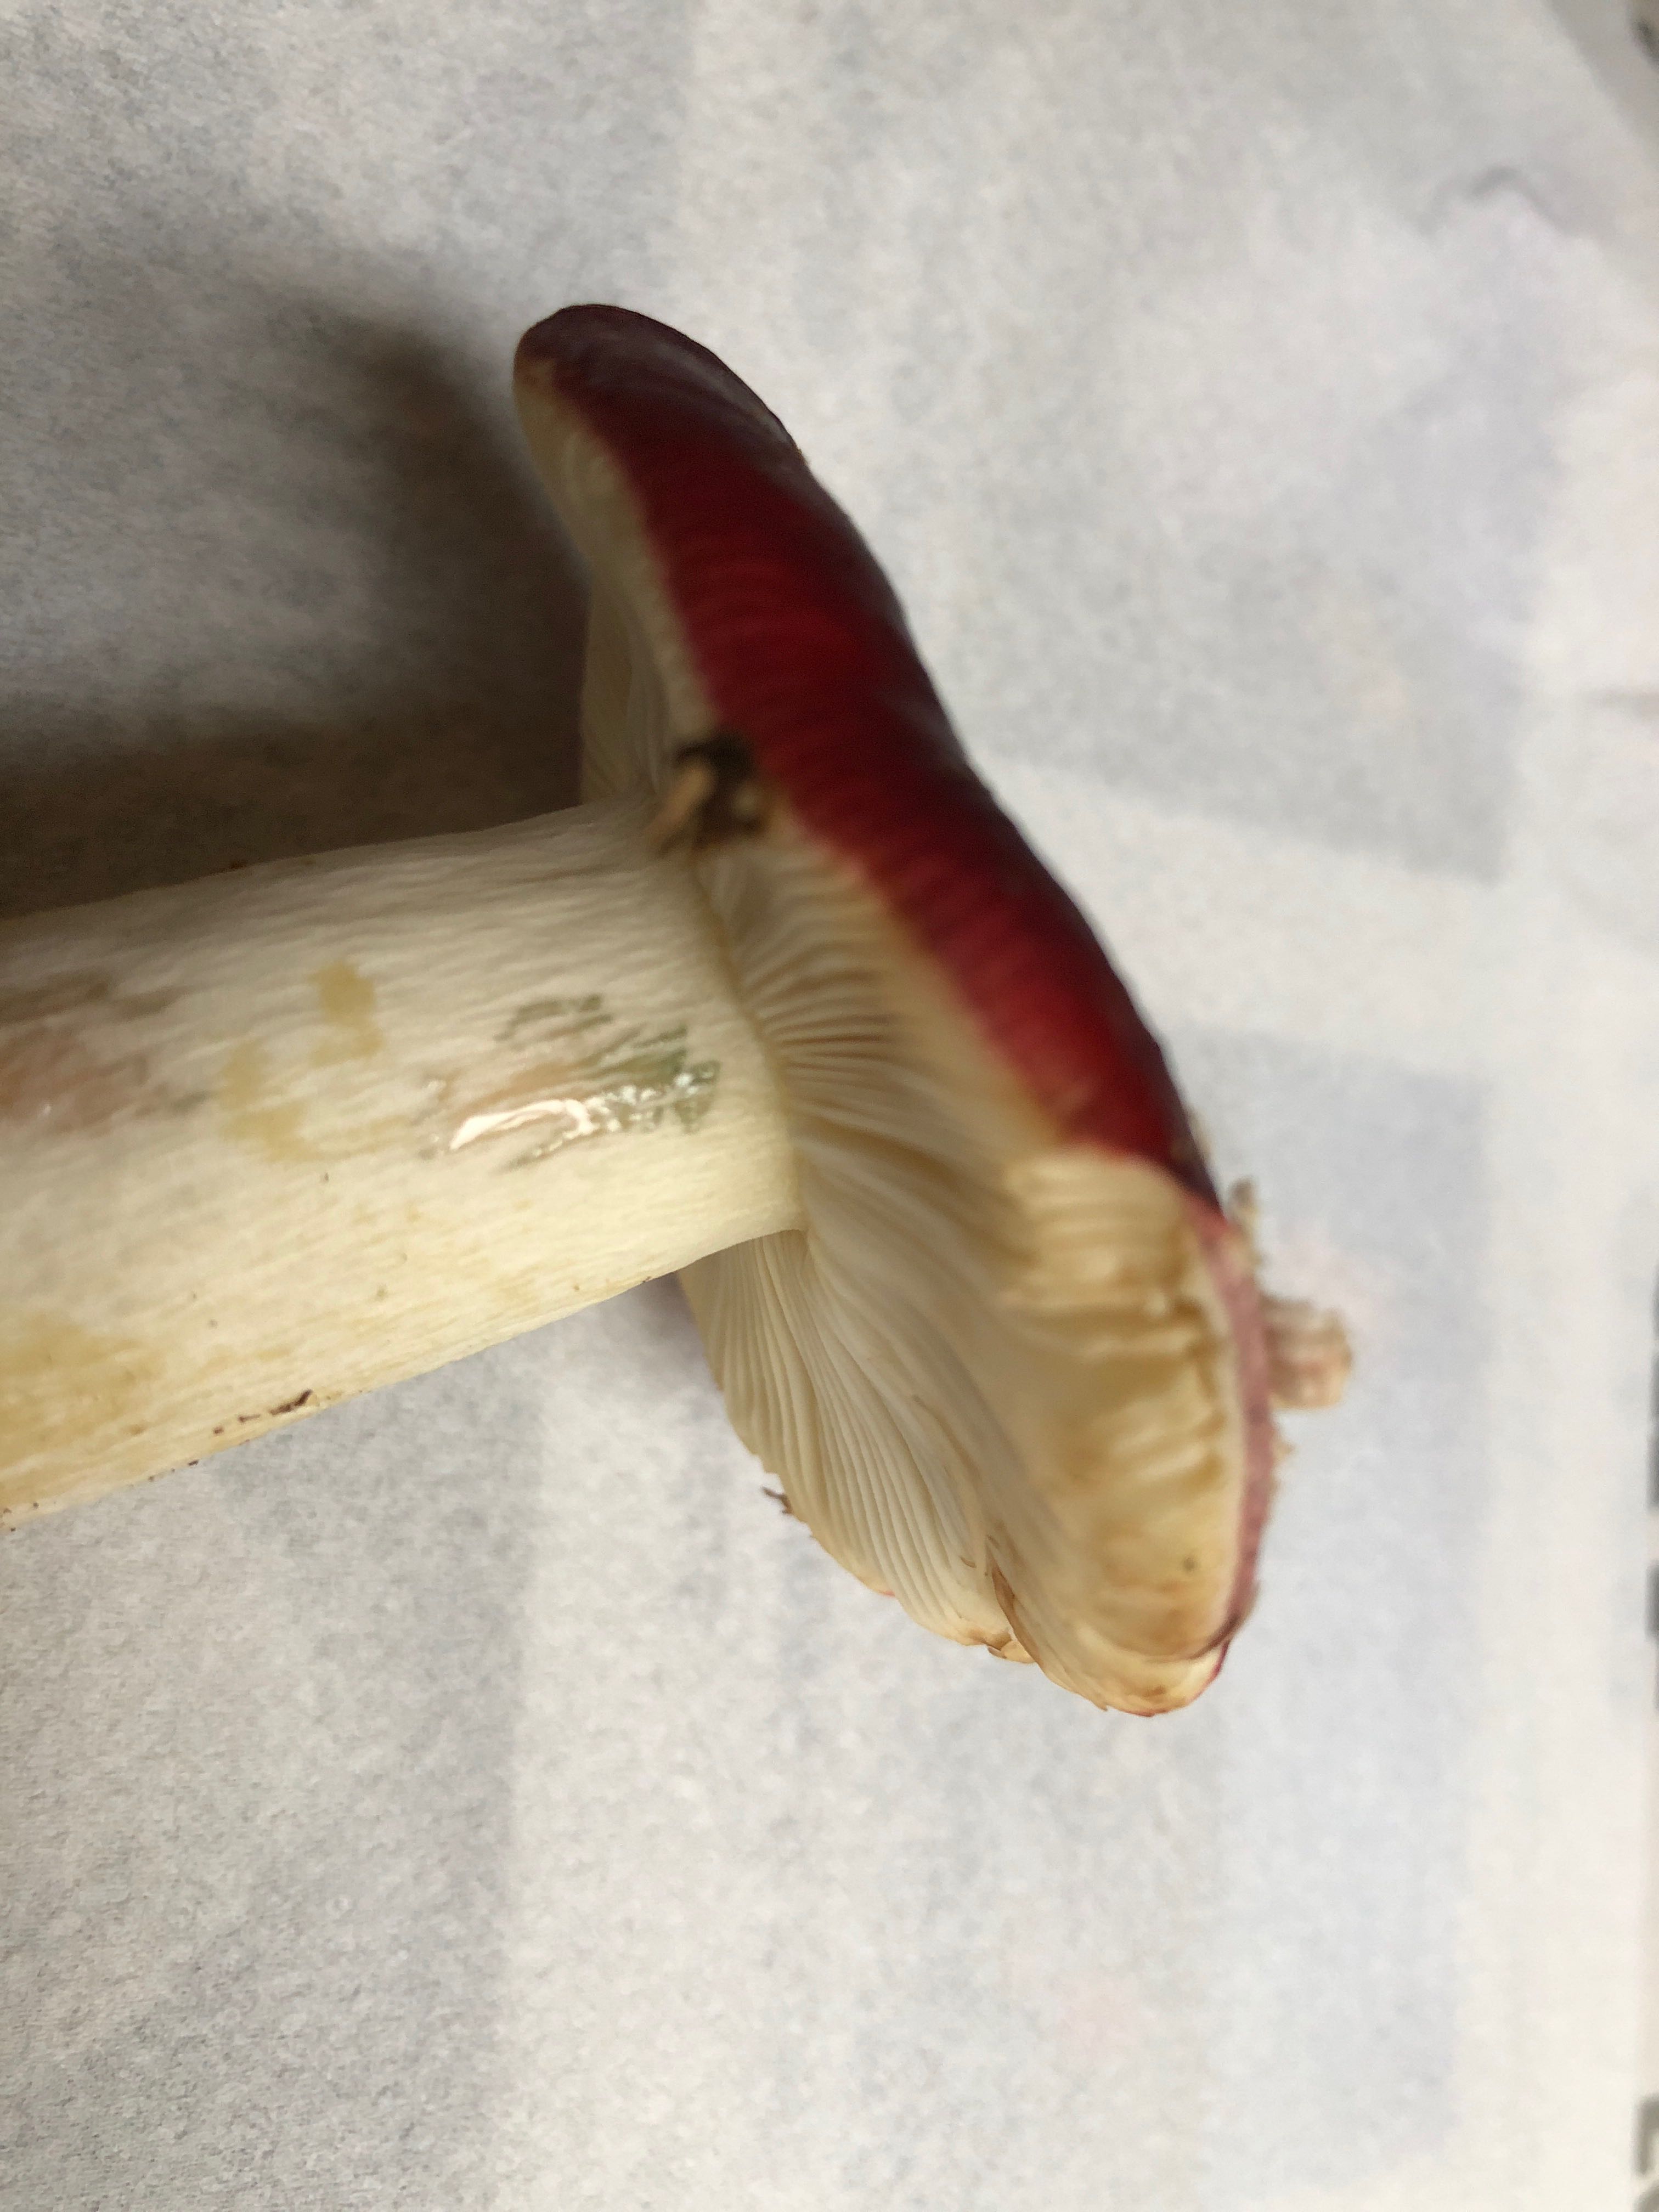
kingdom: Fungi
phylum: Basidiomycota
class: Agaricomycetes
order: Russulales
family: Russulaceae
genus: Russula
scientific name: Russula xerampelina
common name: hummer-skørhat
